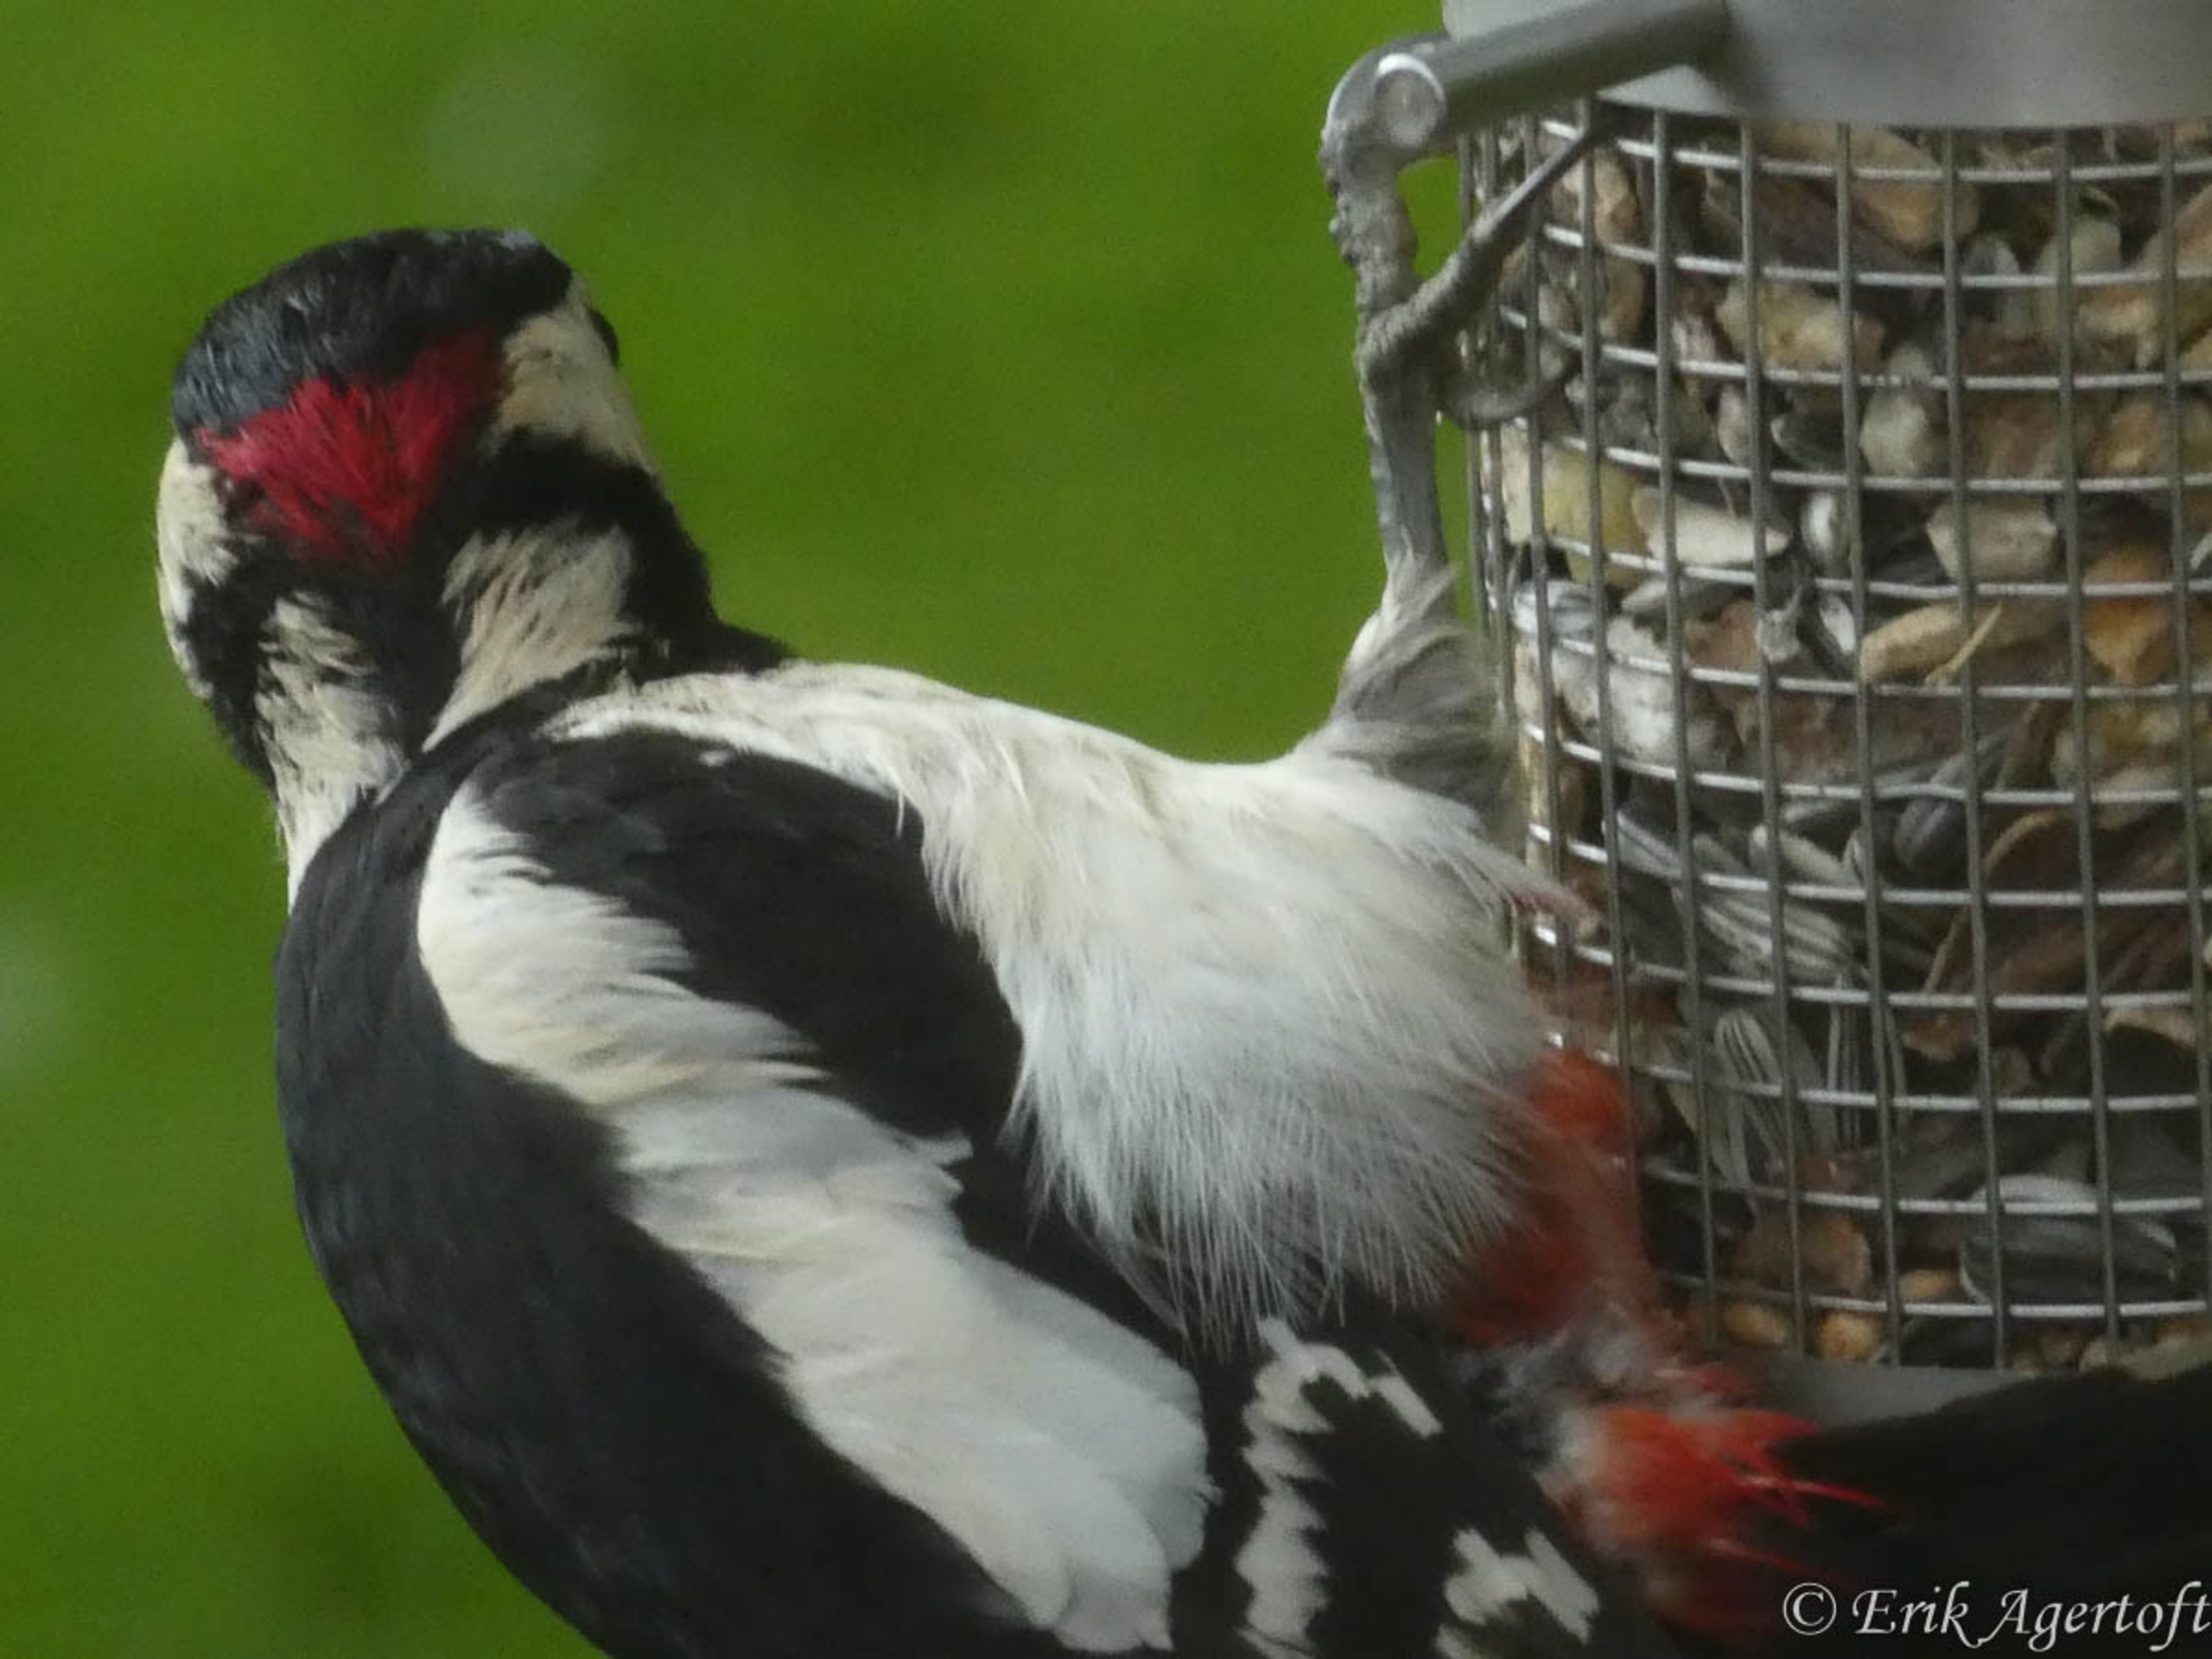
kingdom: Animalia
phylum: Chordata
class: Aves
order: Piciformes
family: Picidae
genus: Dendrocopos
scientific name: Dendrocopos major
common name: Stor flagspætte
